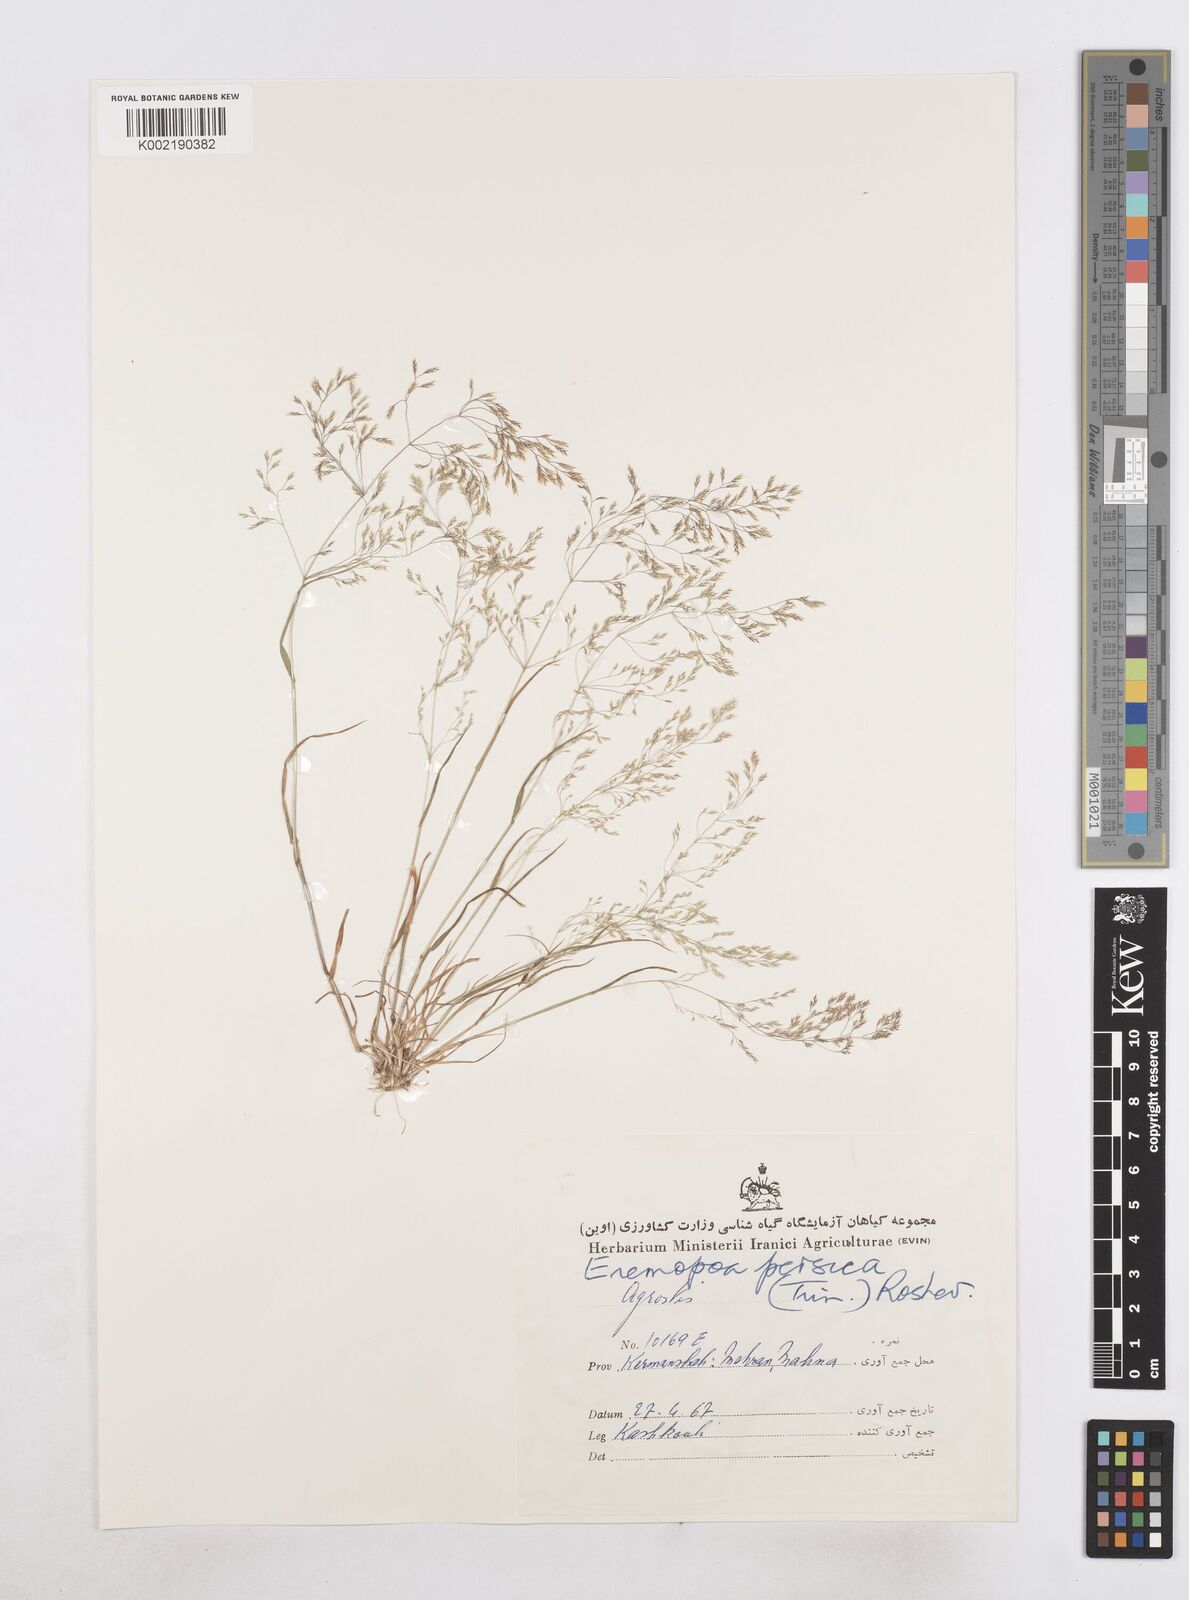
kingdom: Plantae
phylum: Tracheophyta
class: Liliopsida
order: Poales
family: Poaceae
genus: Poa
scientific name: Poa persica
